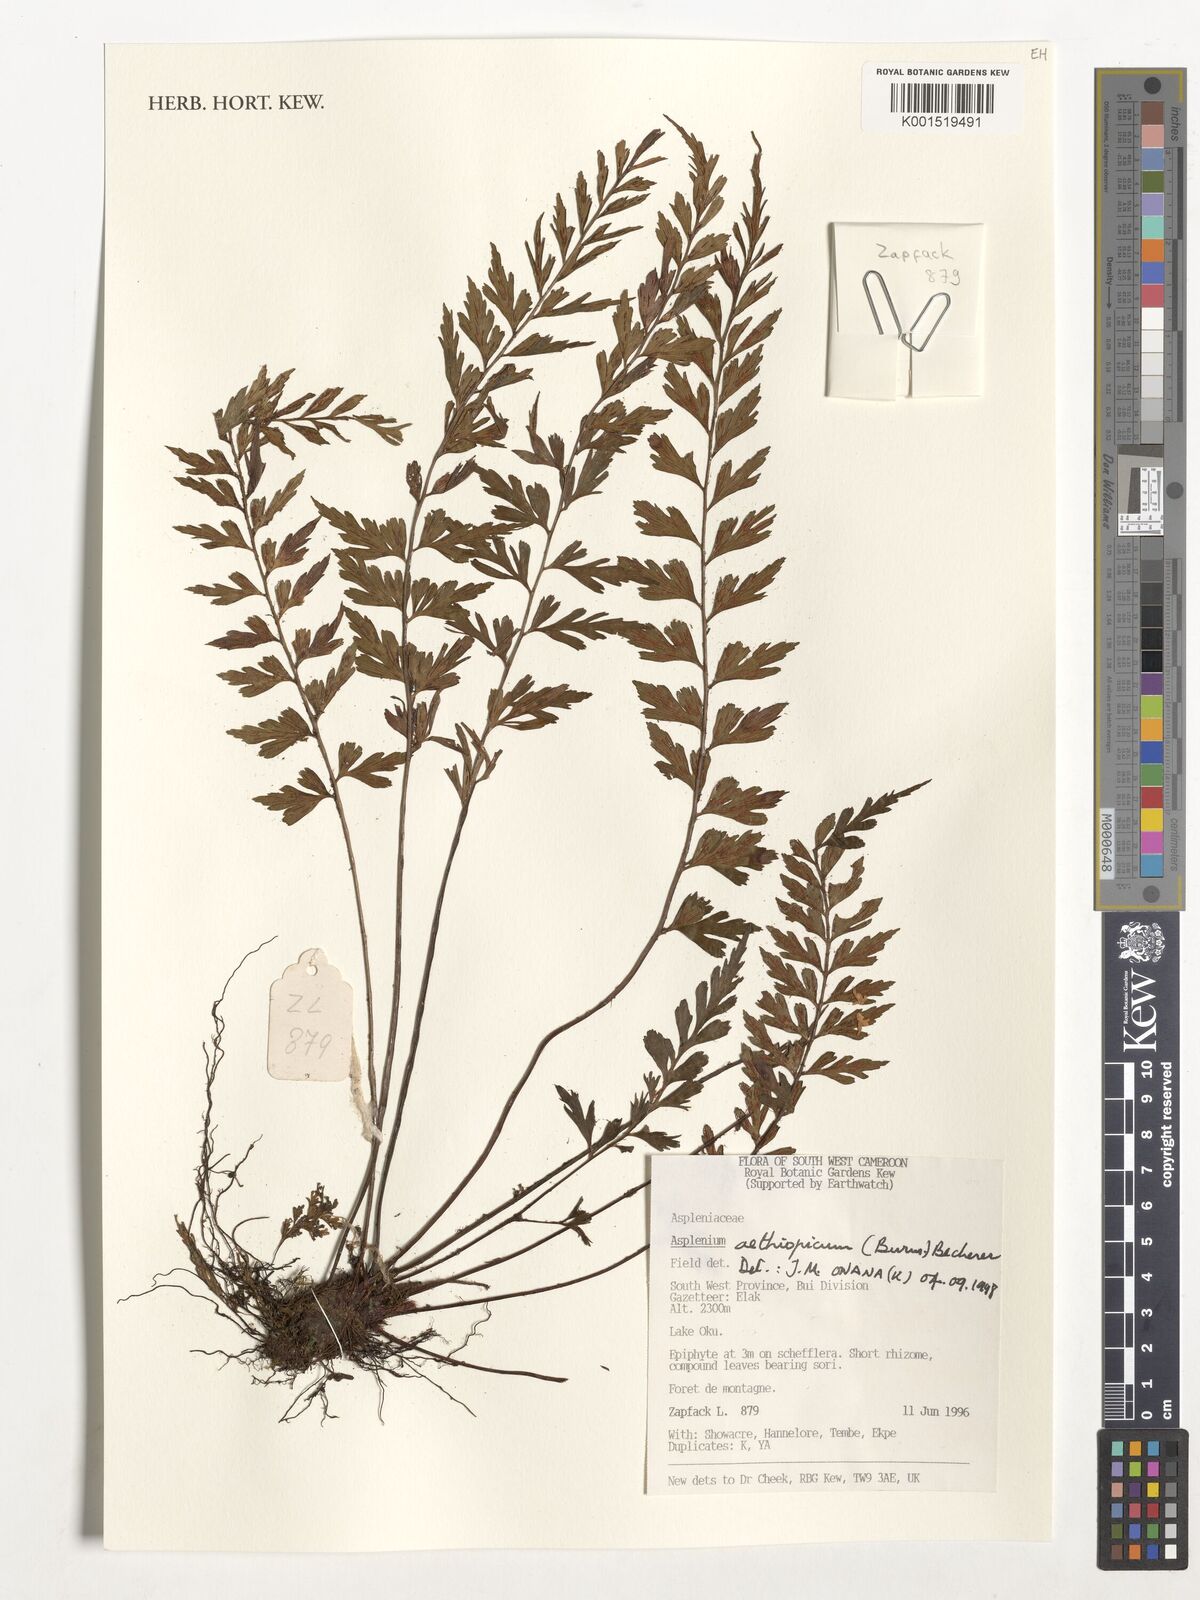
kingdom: Plantae
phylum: Tracheophyta
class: Polypodiopsida
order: Polypodiales
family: Aspleniaceae
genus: Asplenium
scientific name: Asplenium aethiopicum
